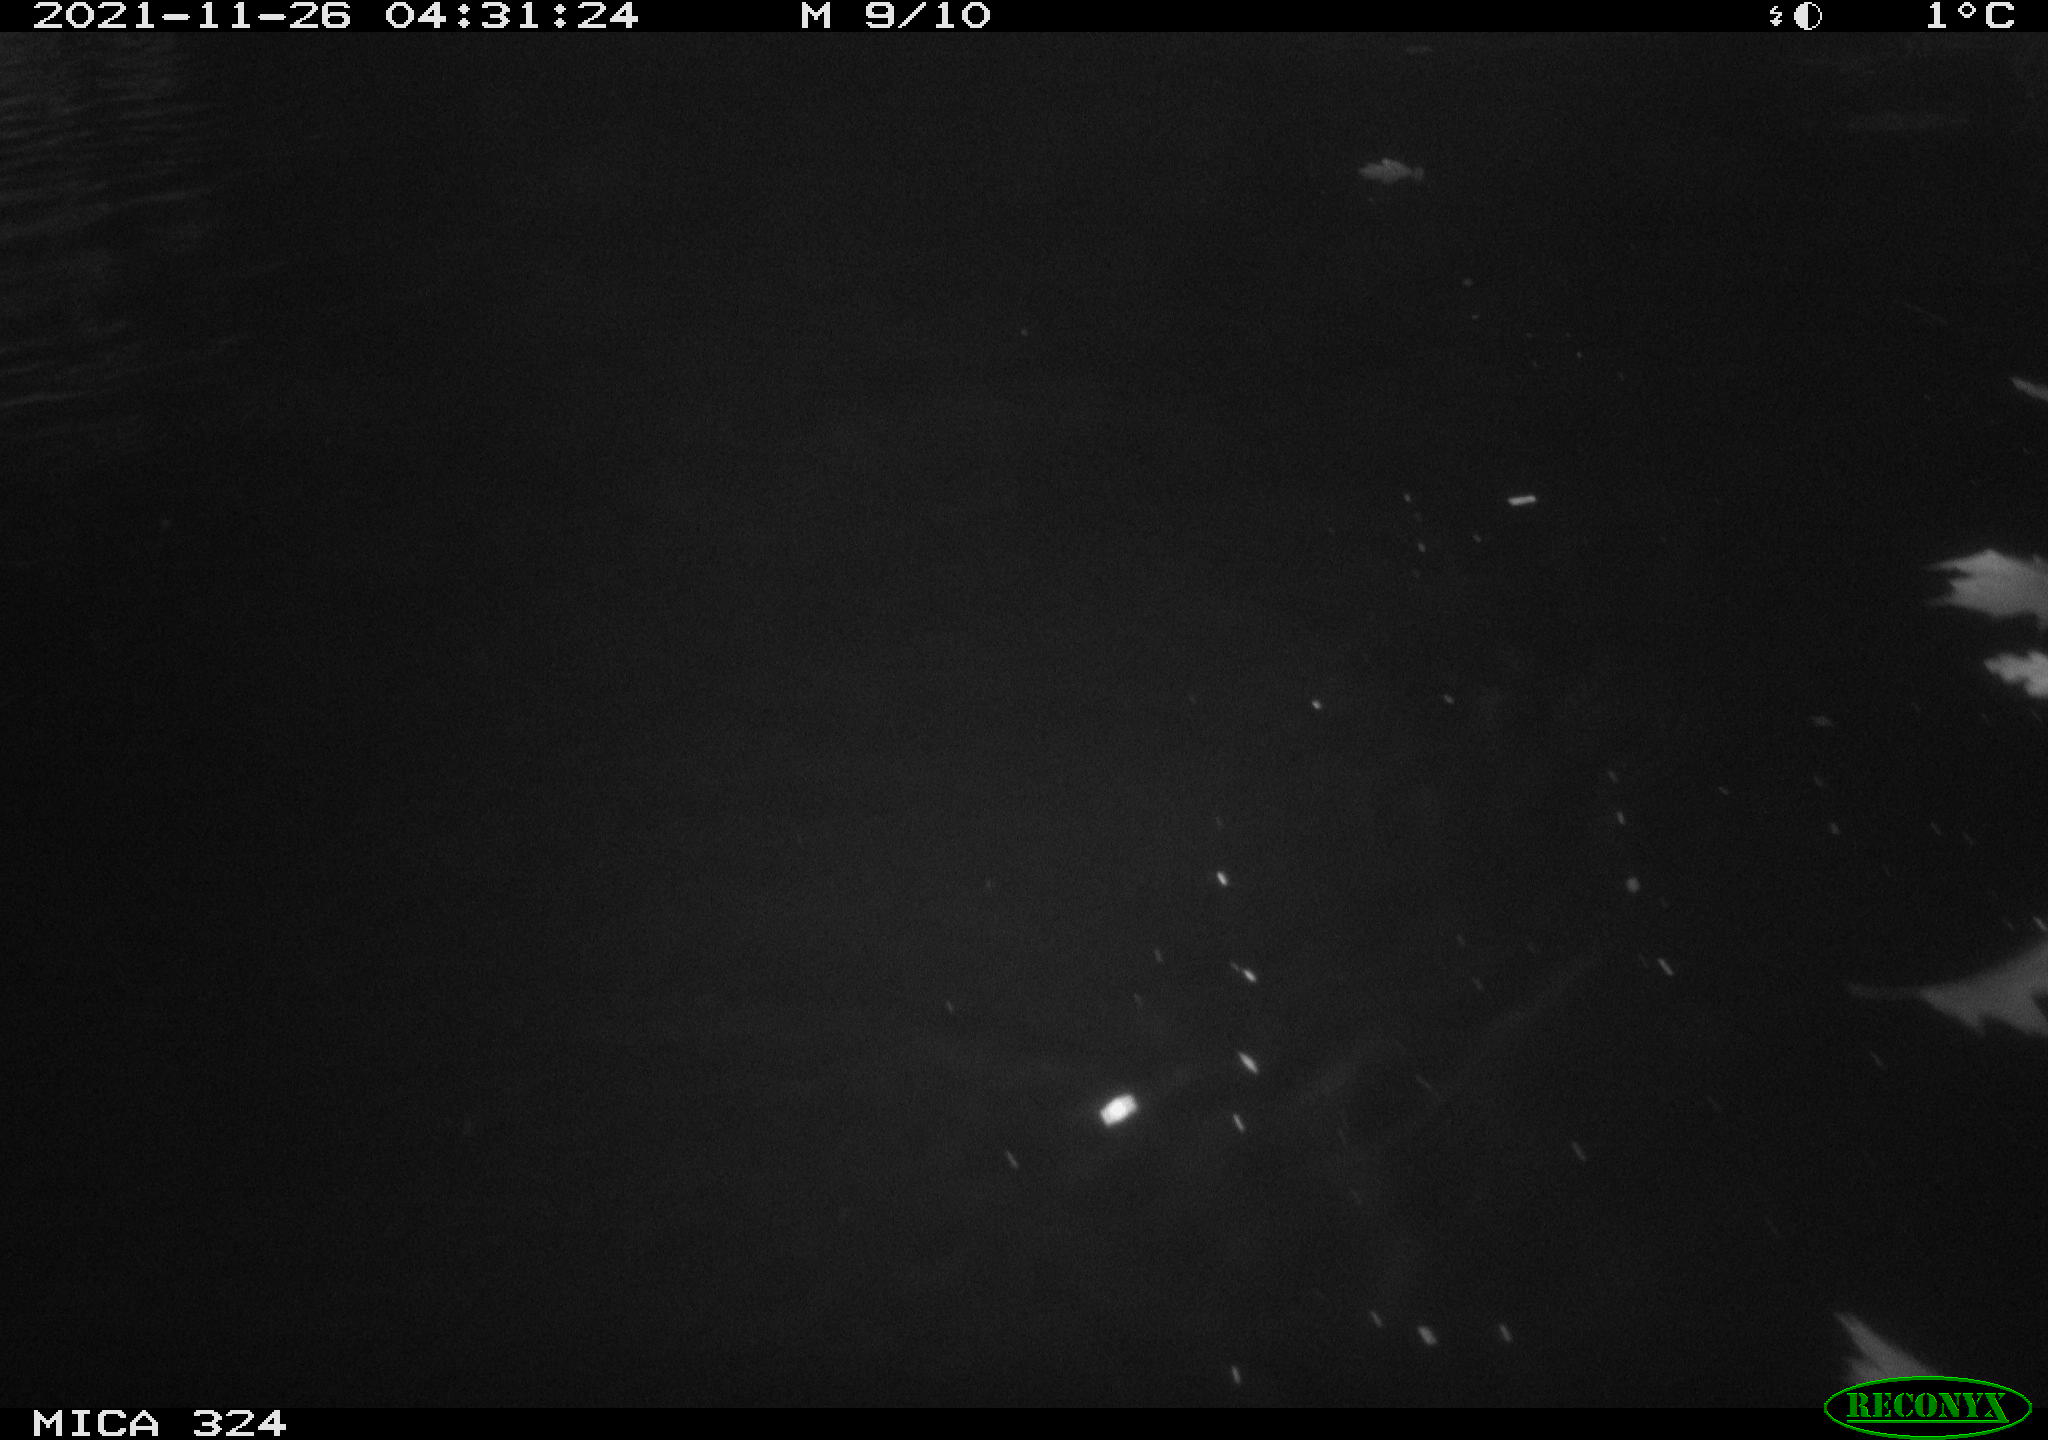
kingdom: Animalia
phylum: Chordata
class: Mammalia
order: Rodentia
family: Cricetidae
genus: Ondatra
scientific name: Ondatra zibethicus
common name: Muskrat
